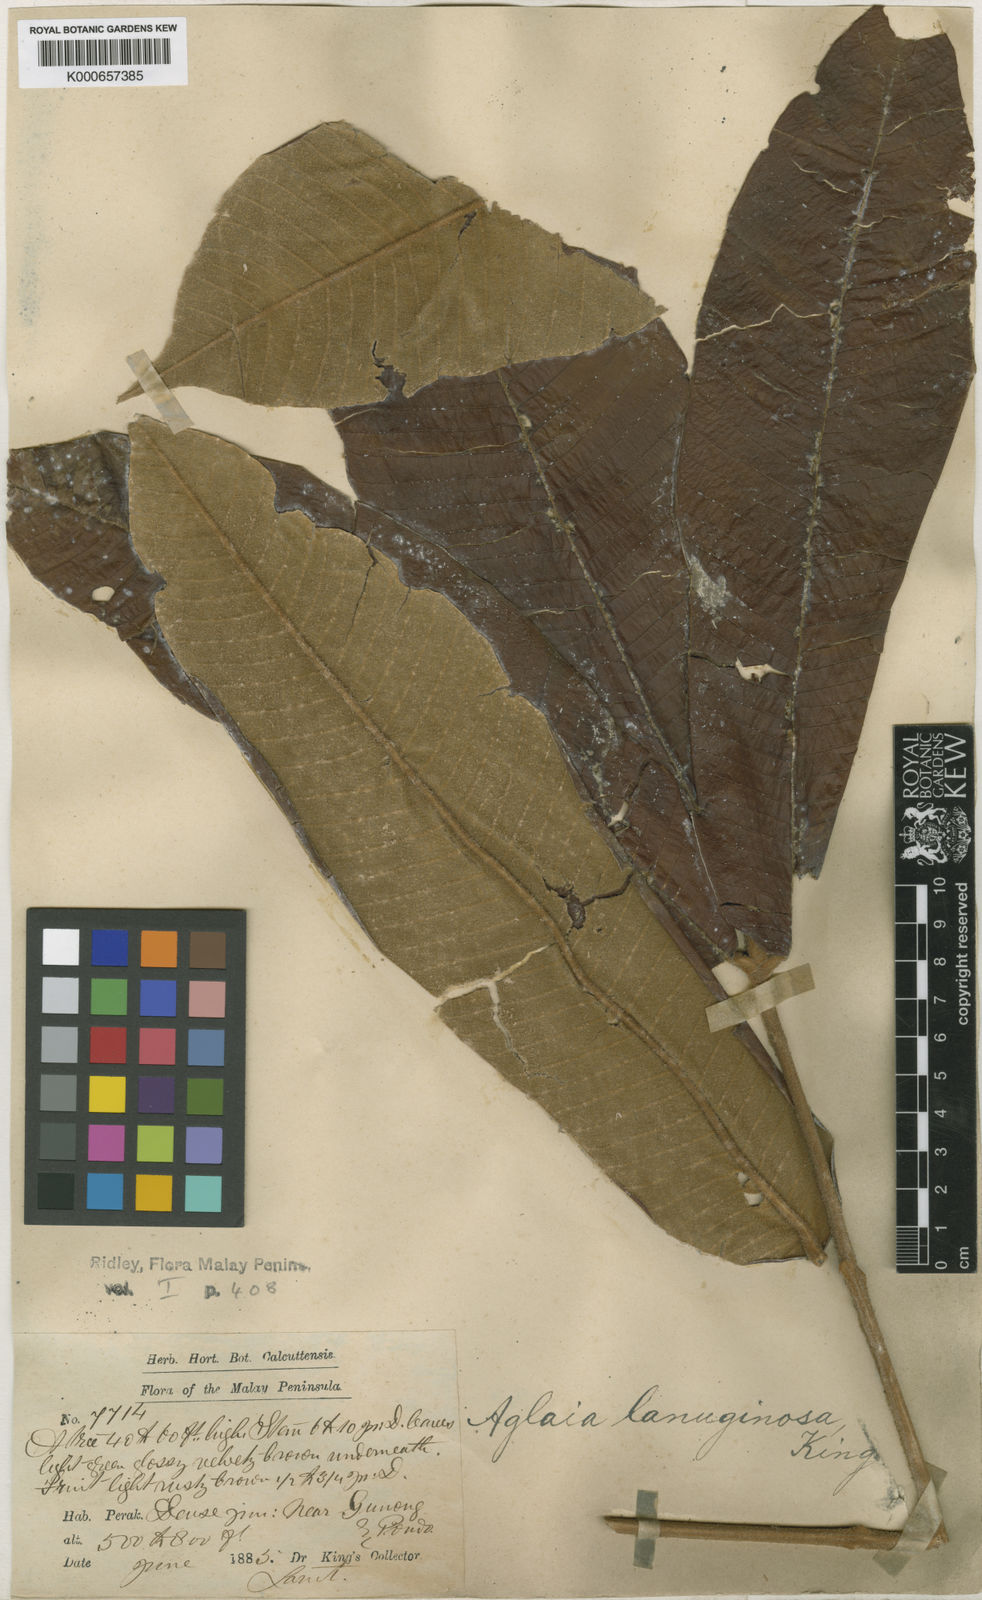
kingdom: Plantae
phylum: Tracheophyta
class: Magnoliopsida
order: Sapindales
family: Meliaceae
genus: Aglaia
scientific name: Aglaia
